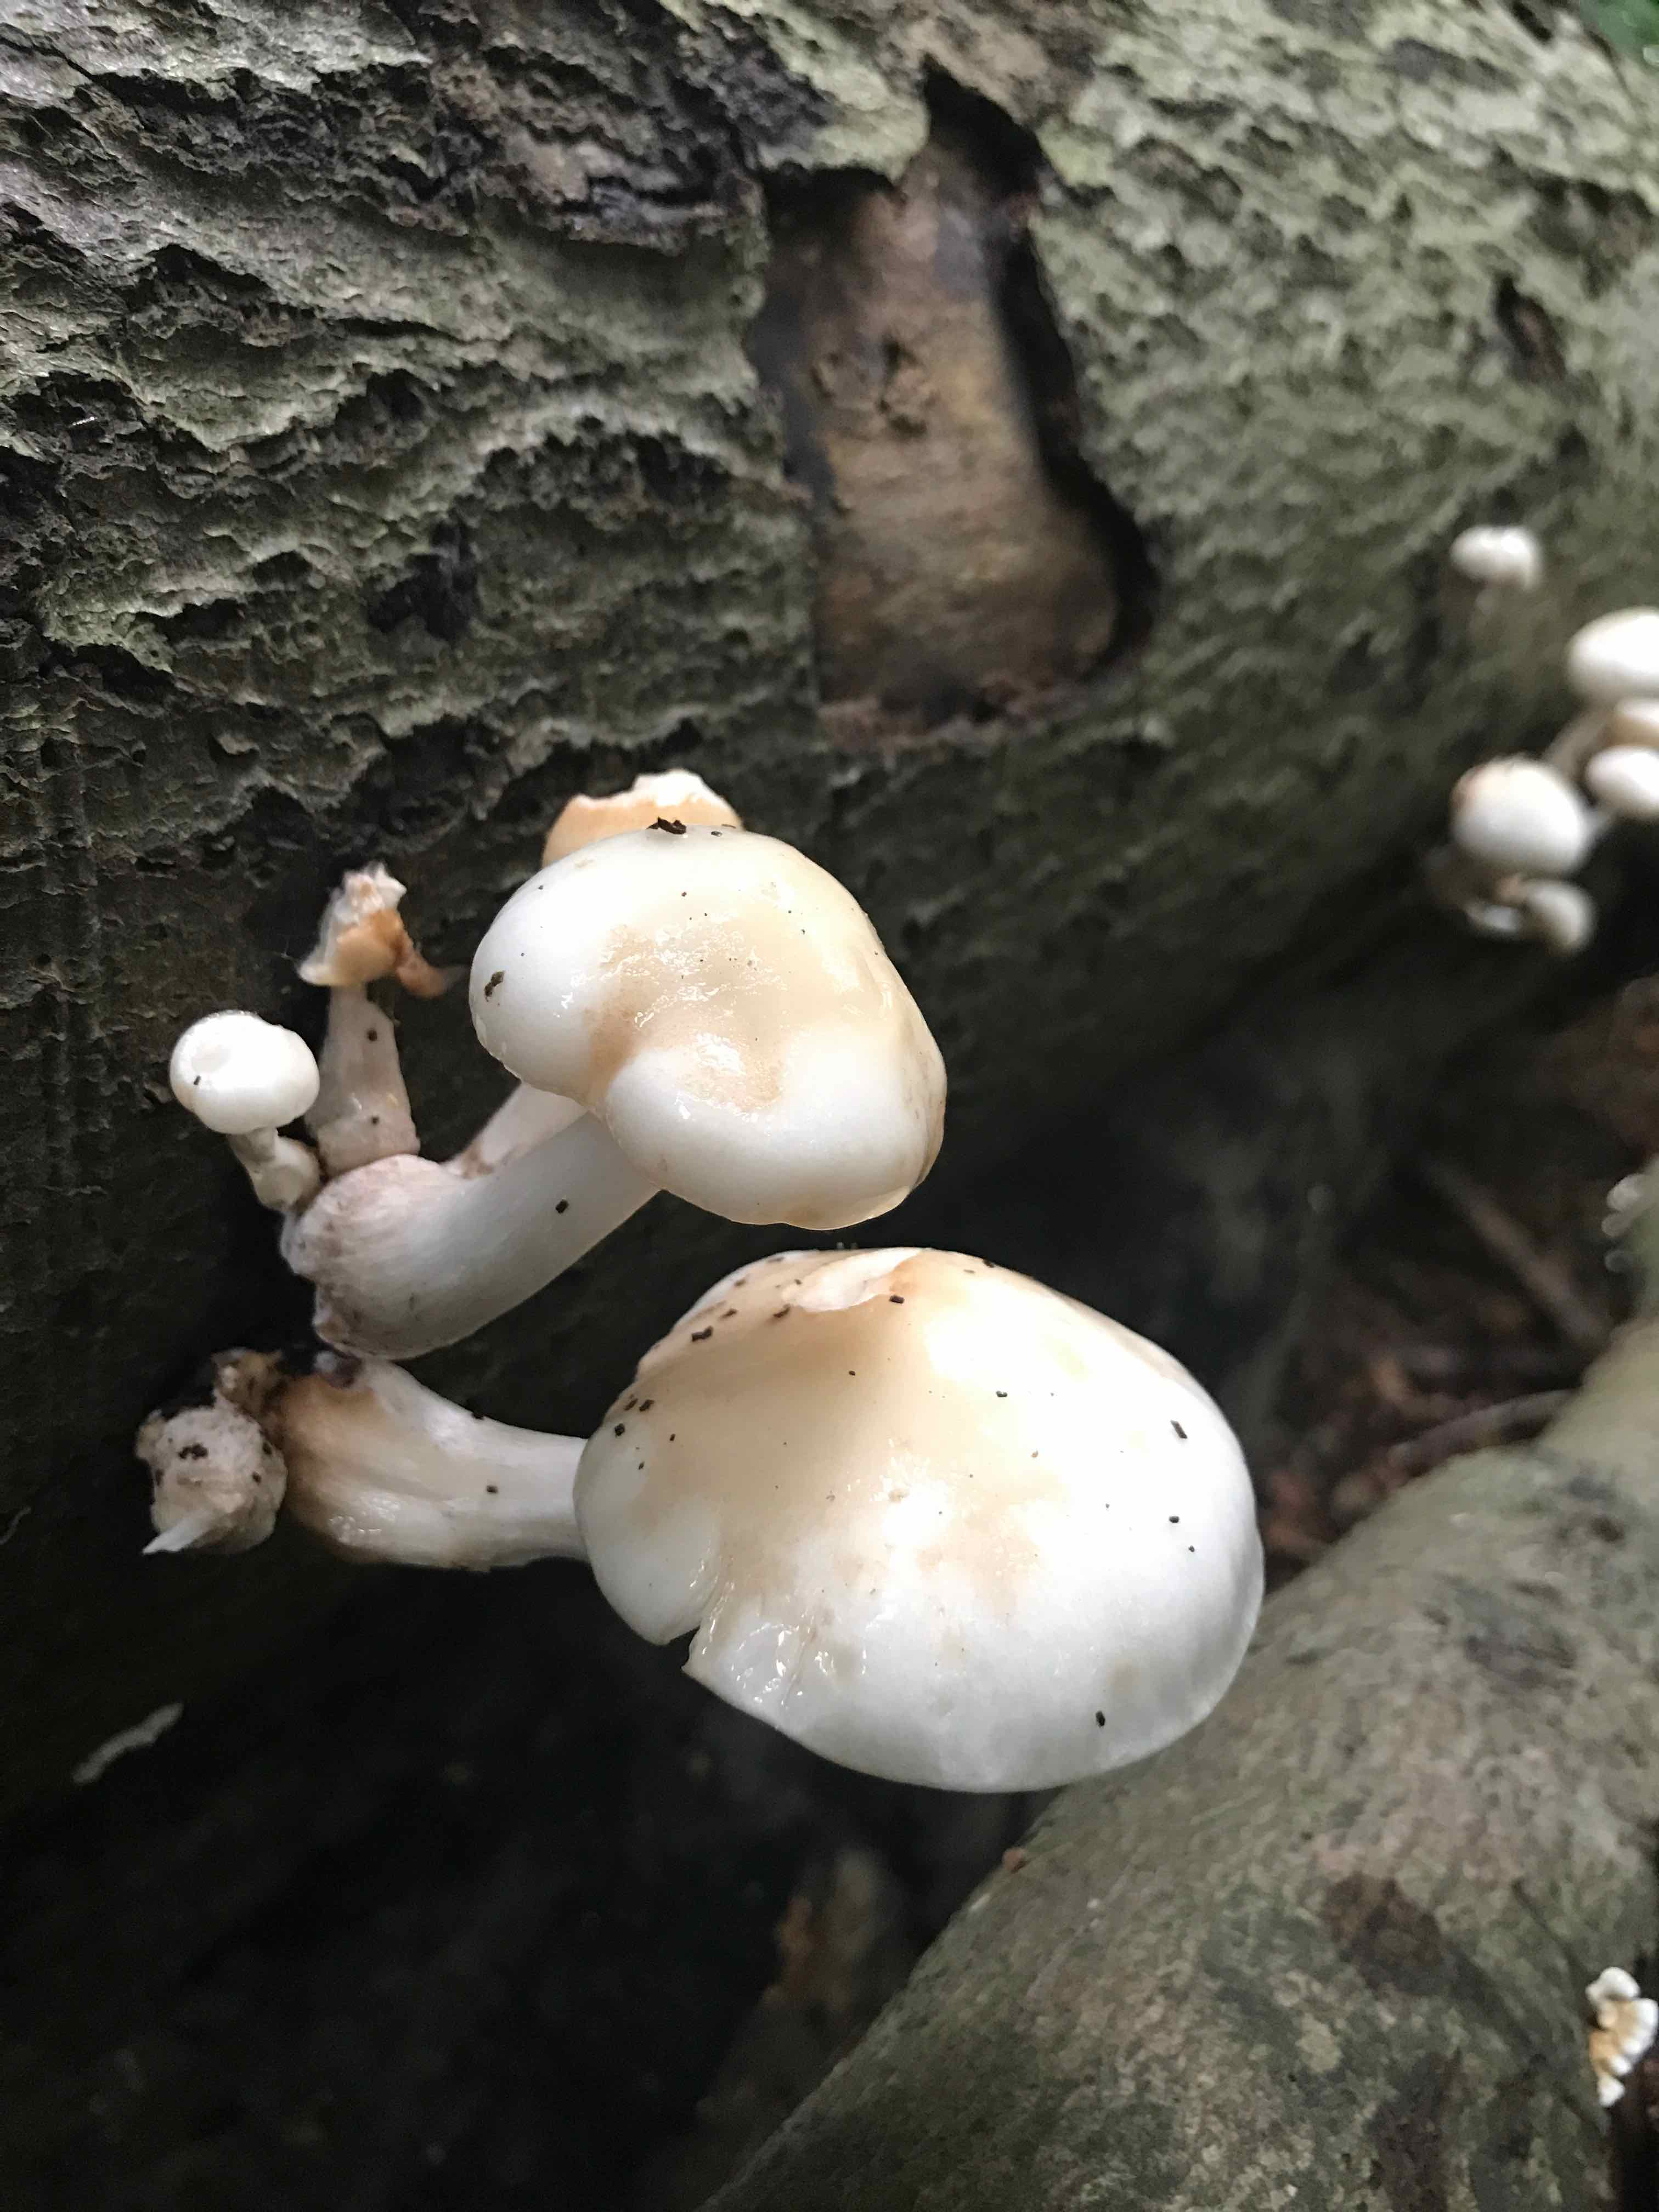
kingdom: Fungi
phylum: Basidiomycota
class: Agaricomycetes
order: Agaricales
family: Physalacriaceae
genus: Mucidula
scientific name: Mucidula mucida
